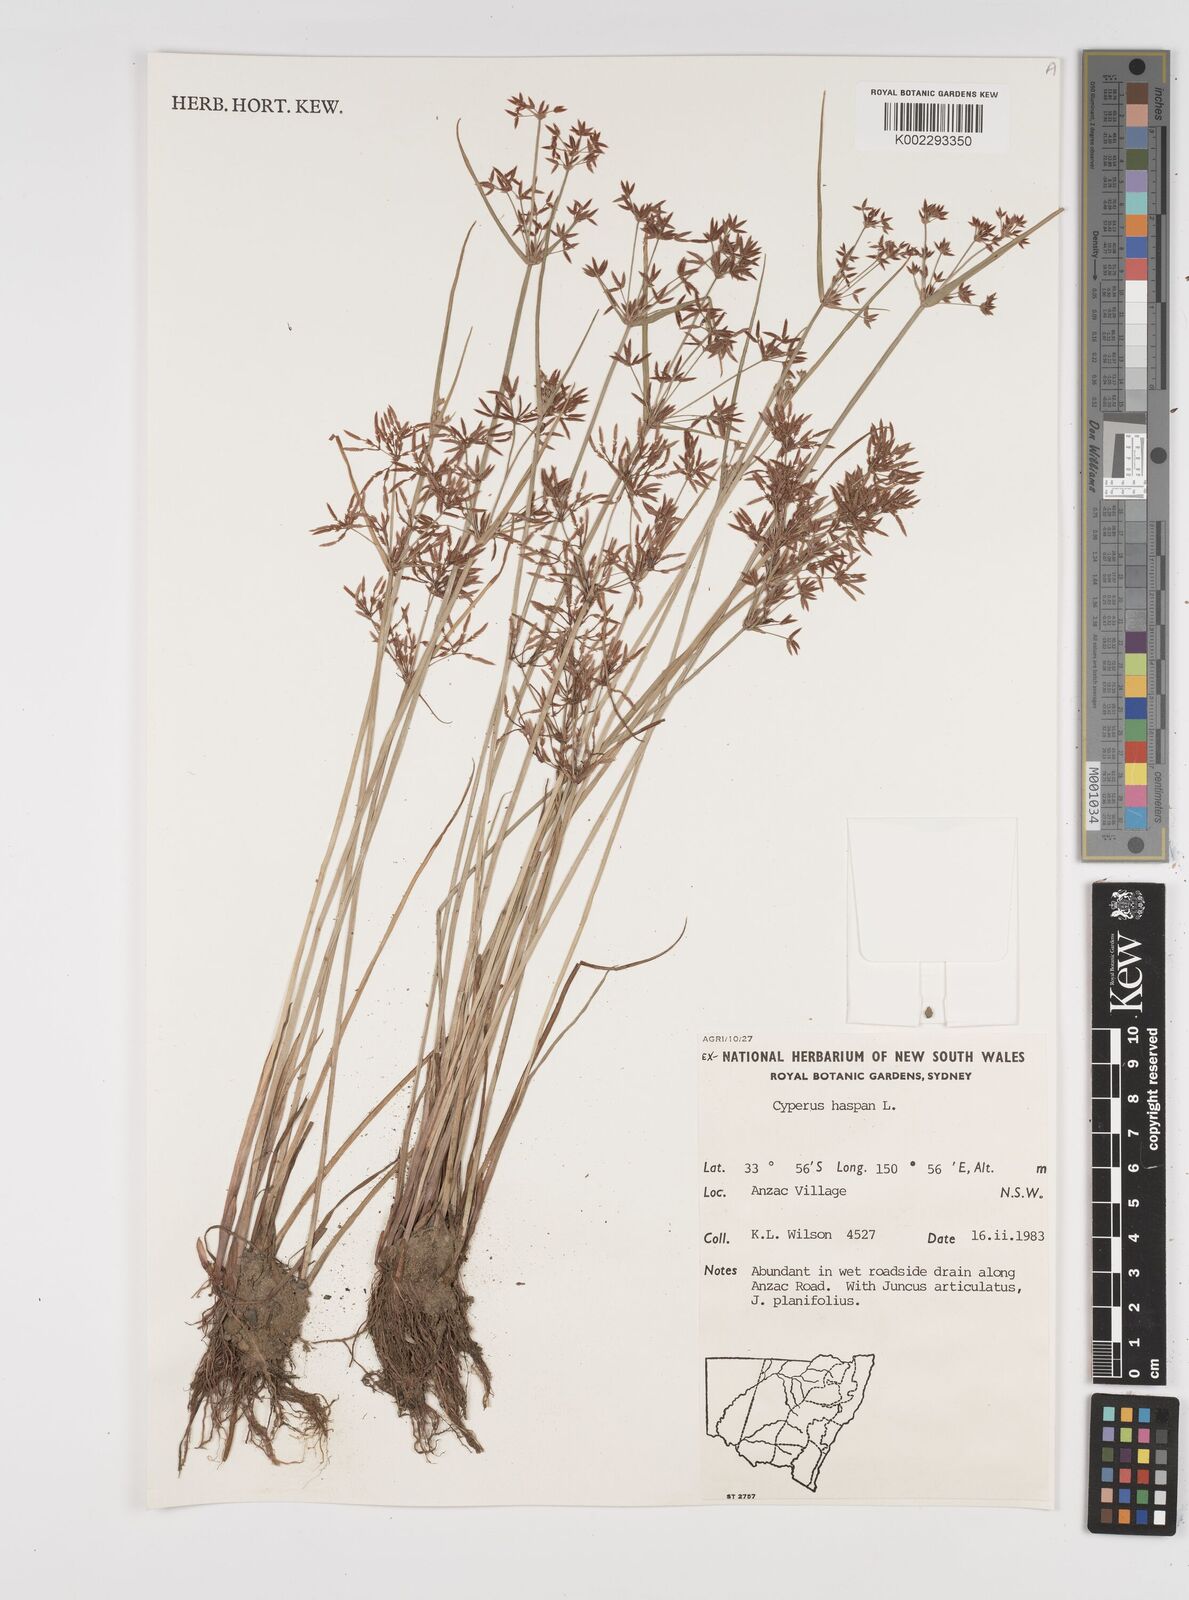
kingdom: Plantae
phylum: Tracheophyta
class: Liliopsida
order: Poales
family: Cyperaceae
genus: Cyperus
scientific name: Cyperus haspan
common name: Haspan flatsedge
